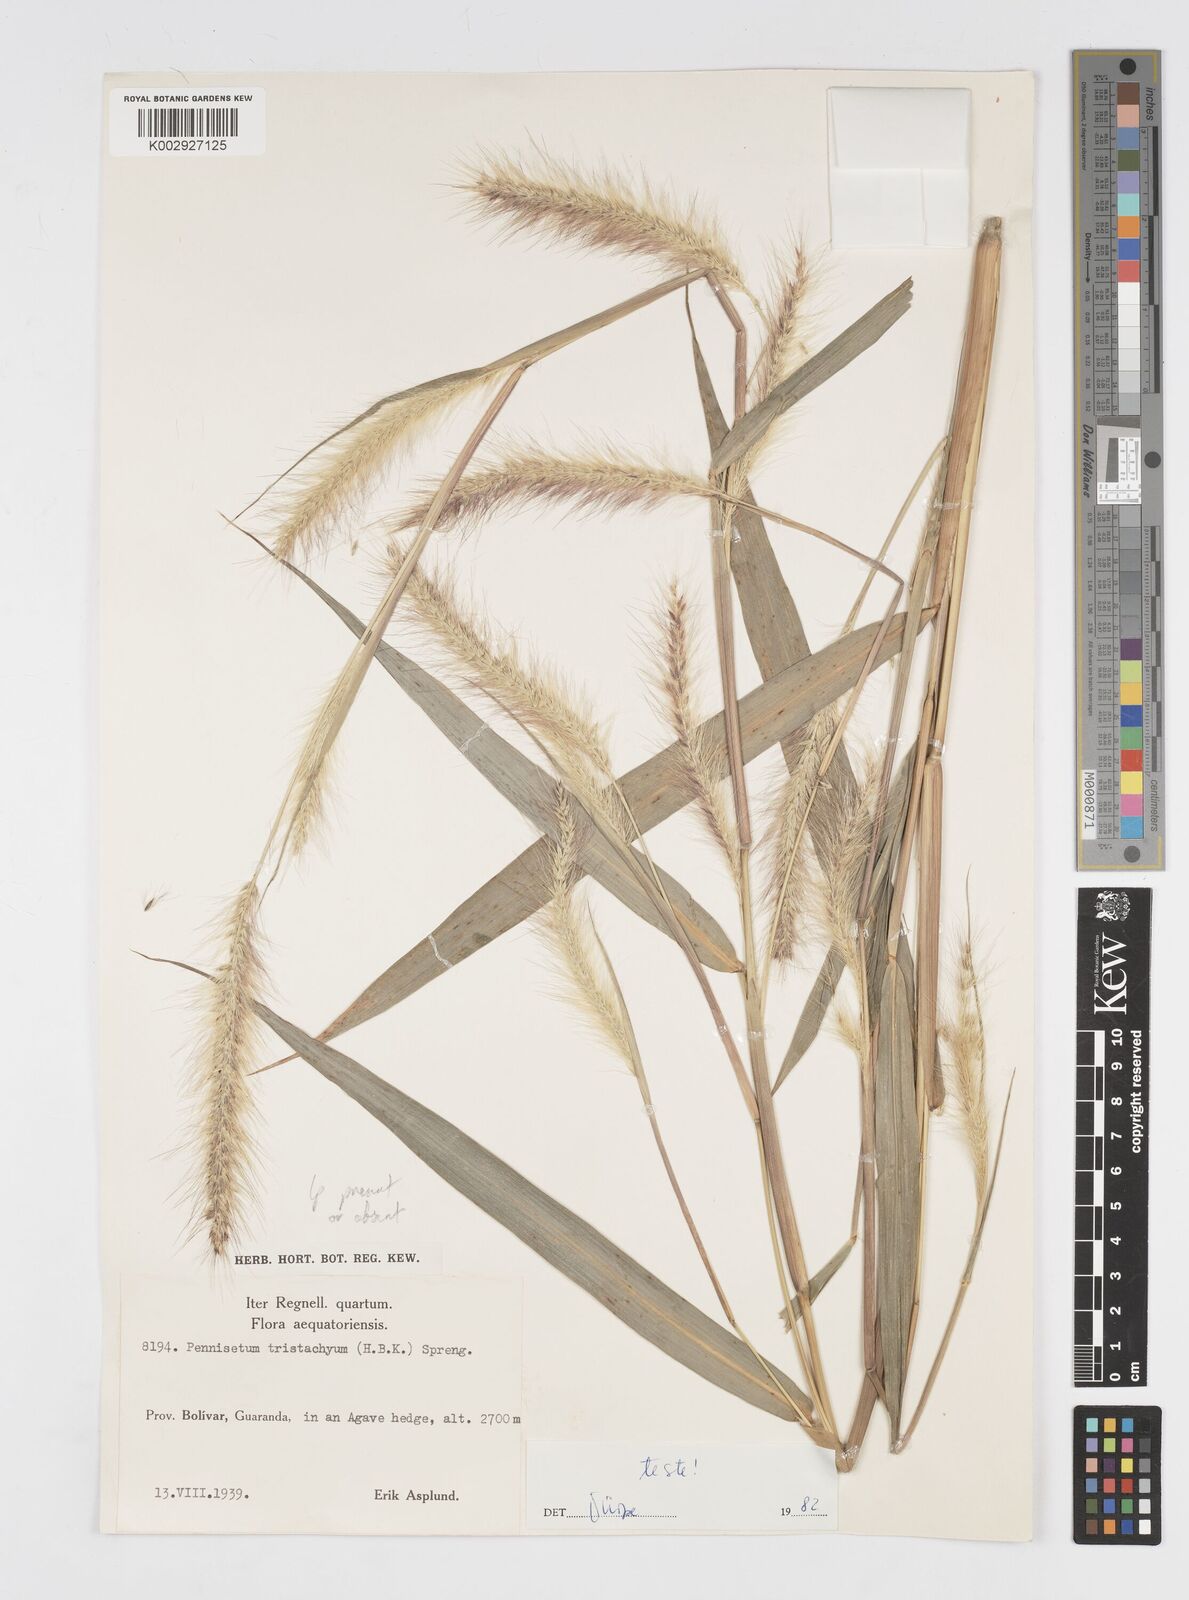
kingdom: Plantae
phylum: Tracheophyta
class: Liliopsida
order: Poales
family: Poaceae
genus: Cenchrus
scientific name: Cenchrus tristachyus
